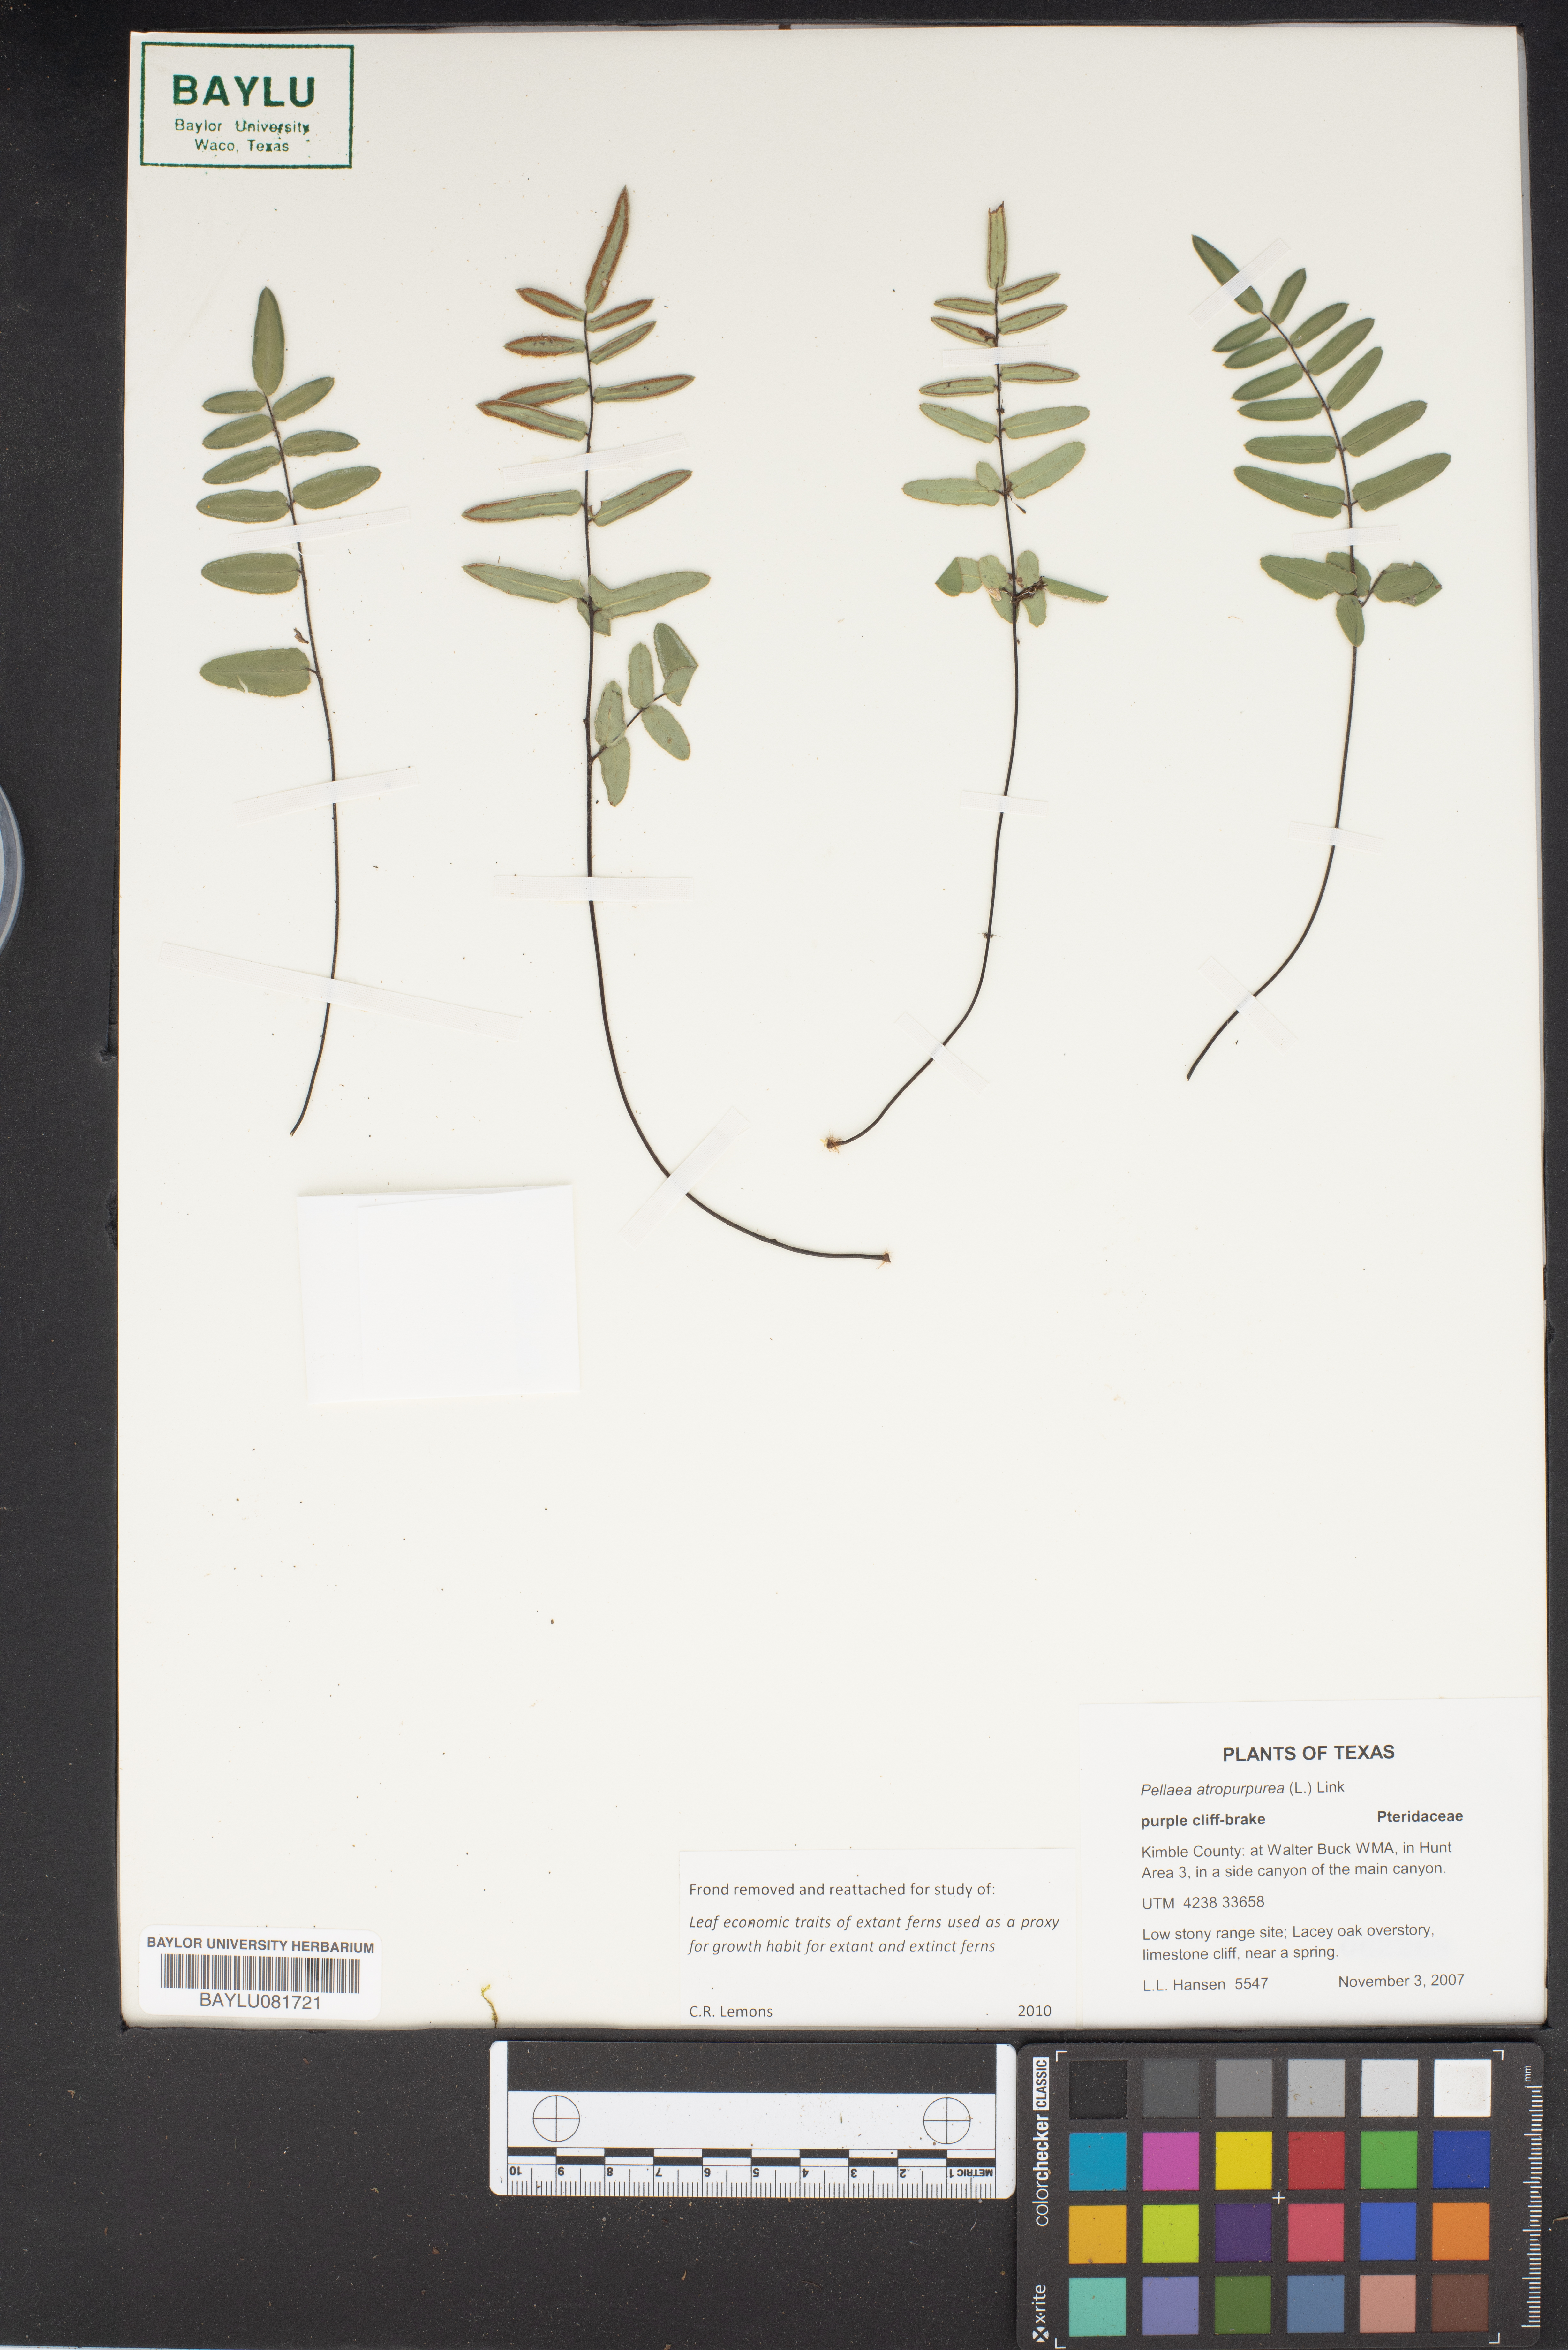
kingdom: Plantae
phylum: Tracheophyta
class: Polypodiopsida
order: Polypodiales
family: Pteridaceae
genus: Pellaea
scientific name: Pellaea atropurpurea
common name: Hairy cliffbrake
